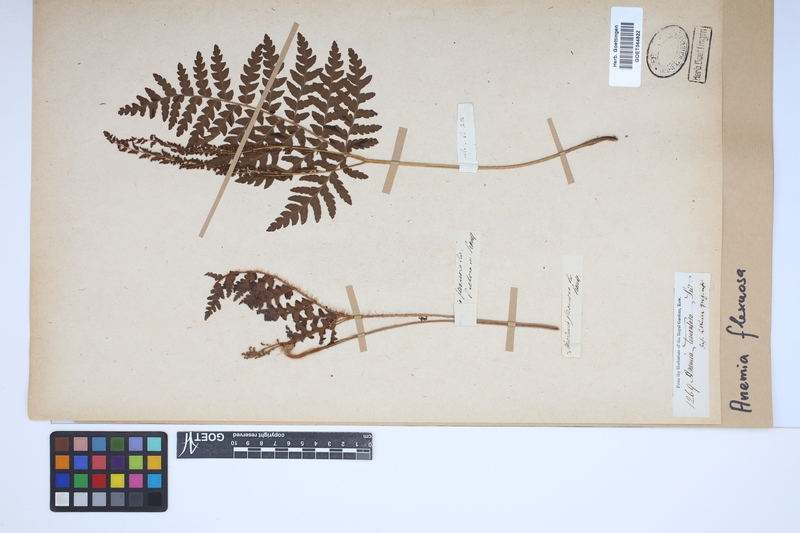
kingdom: Plantae
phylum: Tracheophyta
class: Polypodiopsida
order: Schizaeales
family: Anemiaceae
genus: Anemia
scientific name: Anemia flexuosa
